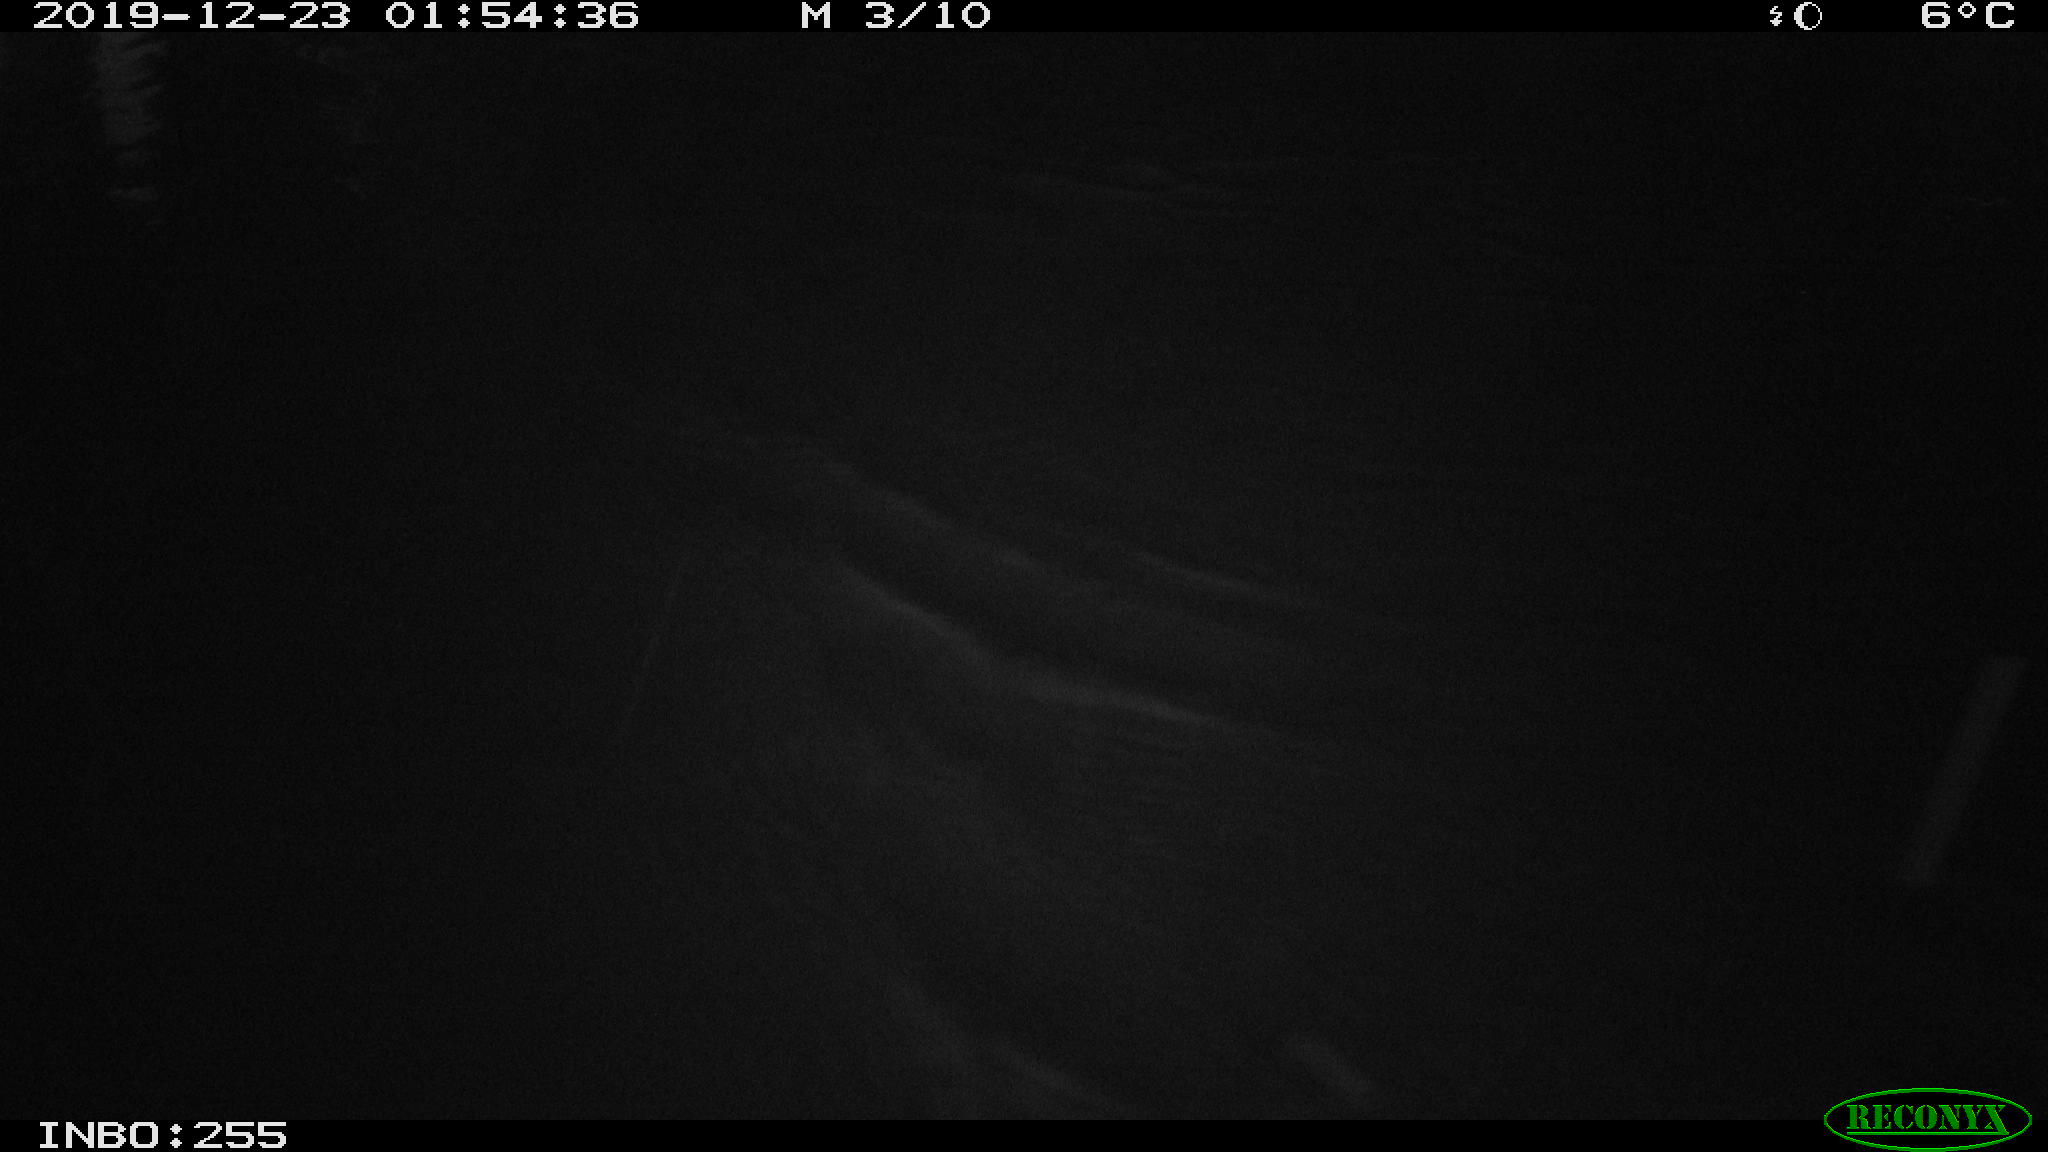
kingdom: Animalia
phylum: Chordata
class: Aves
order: Gruiformes
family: Rallidae
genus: Gallinula
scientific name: Gallinula chloropus
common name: Common moorhen
